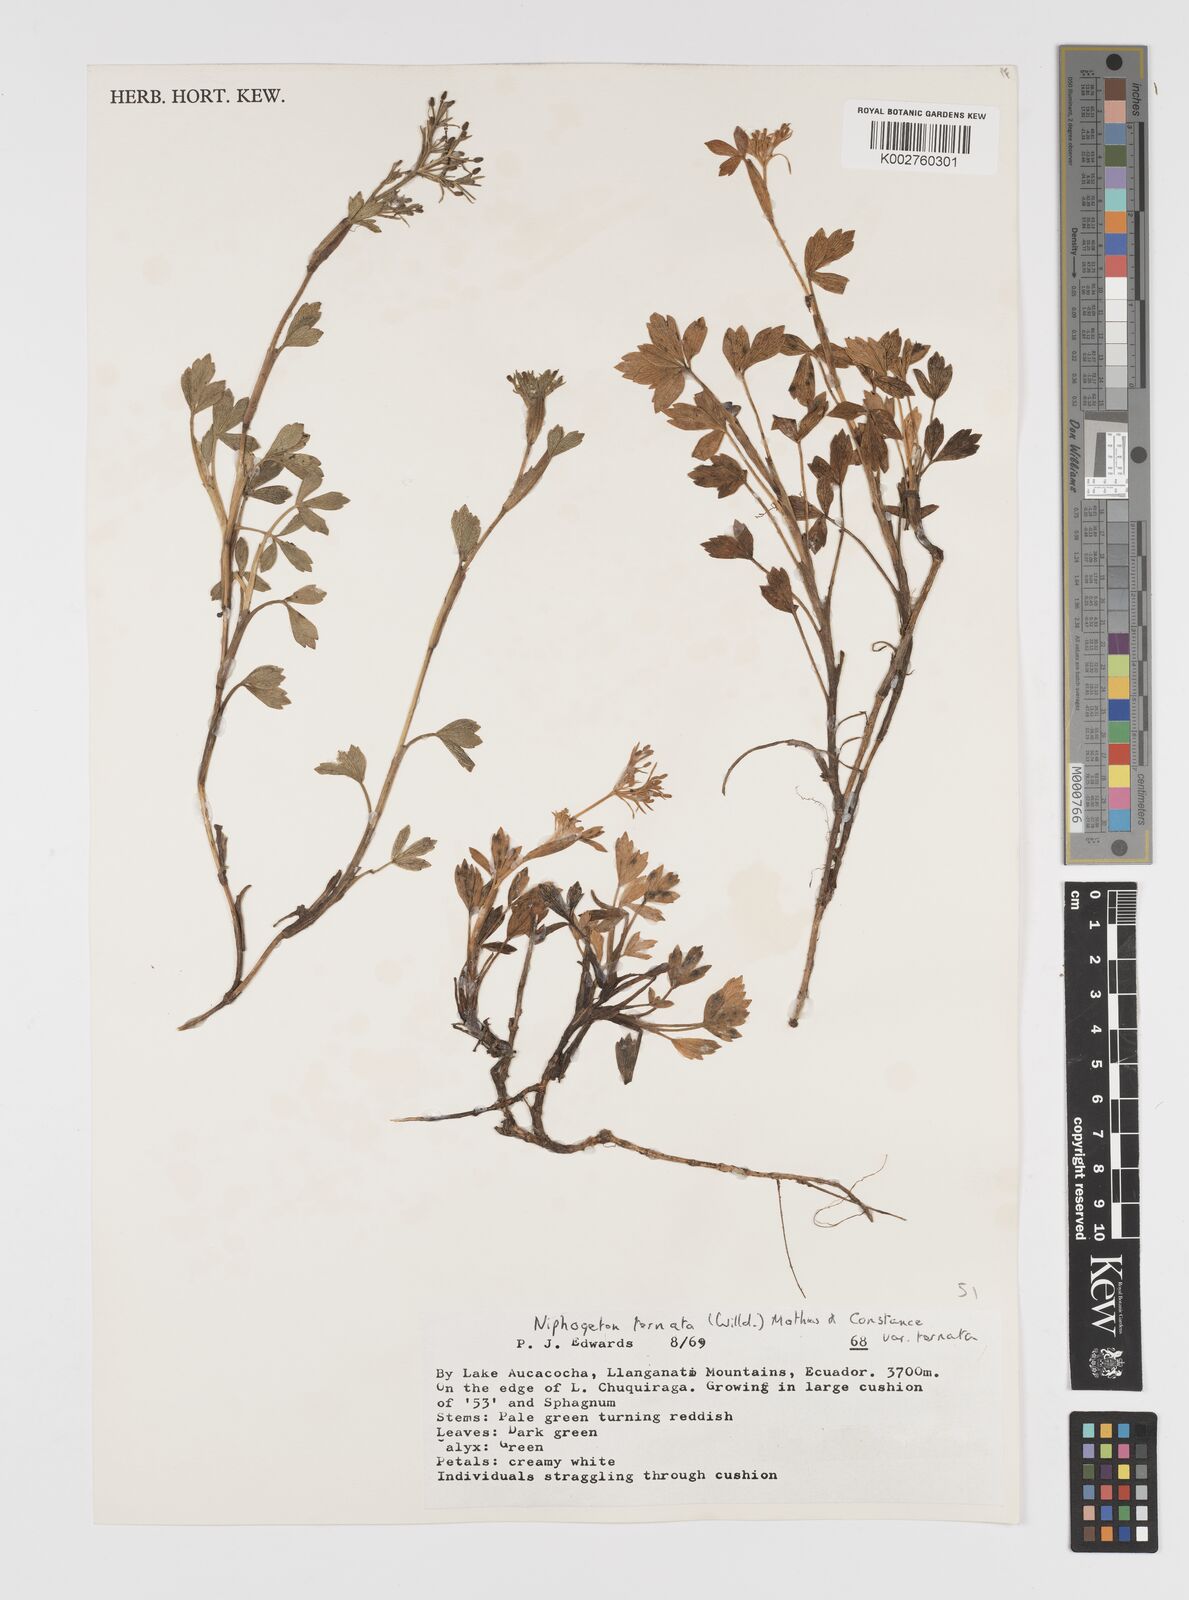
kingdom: Plantae
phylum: Tracheophyta
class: Magnoliopsida
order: Apiales
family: Apiaceae
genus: Niphogeton
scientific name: Niphogeton ternata
